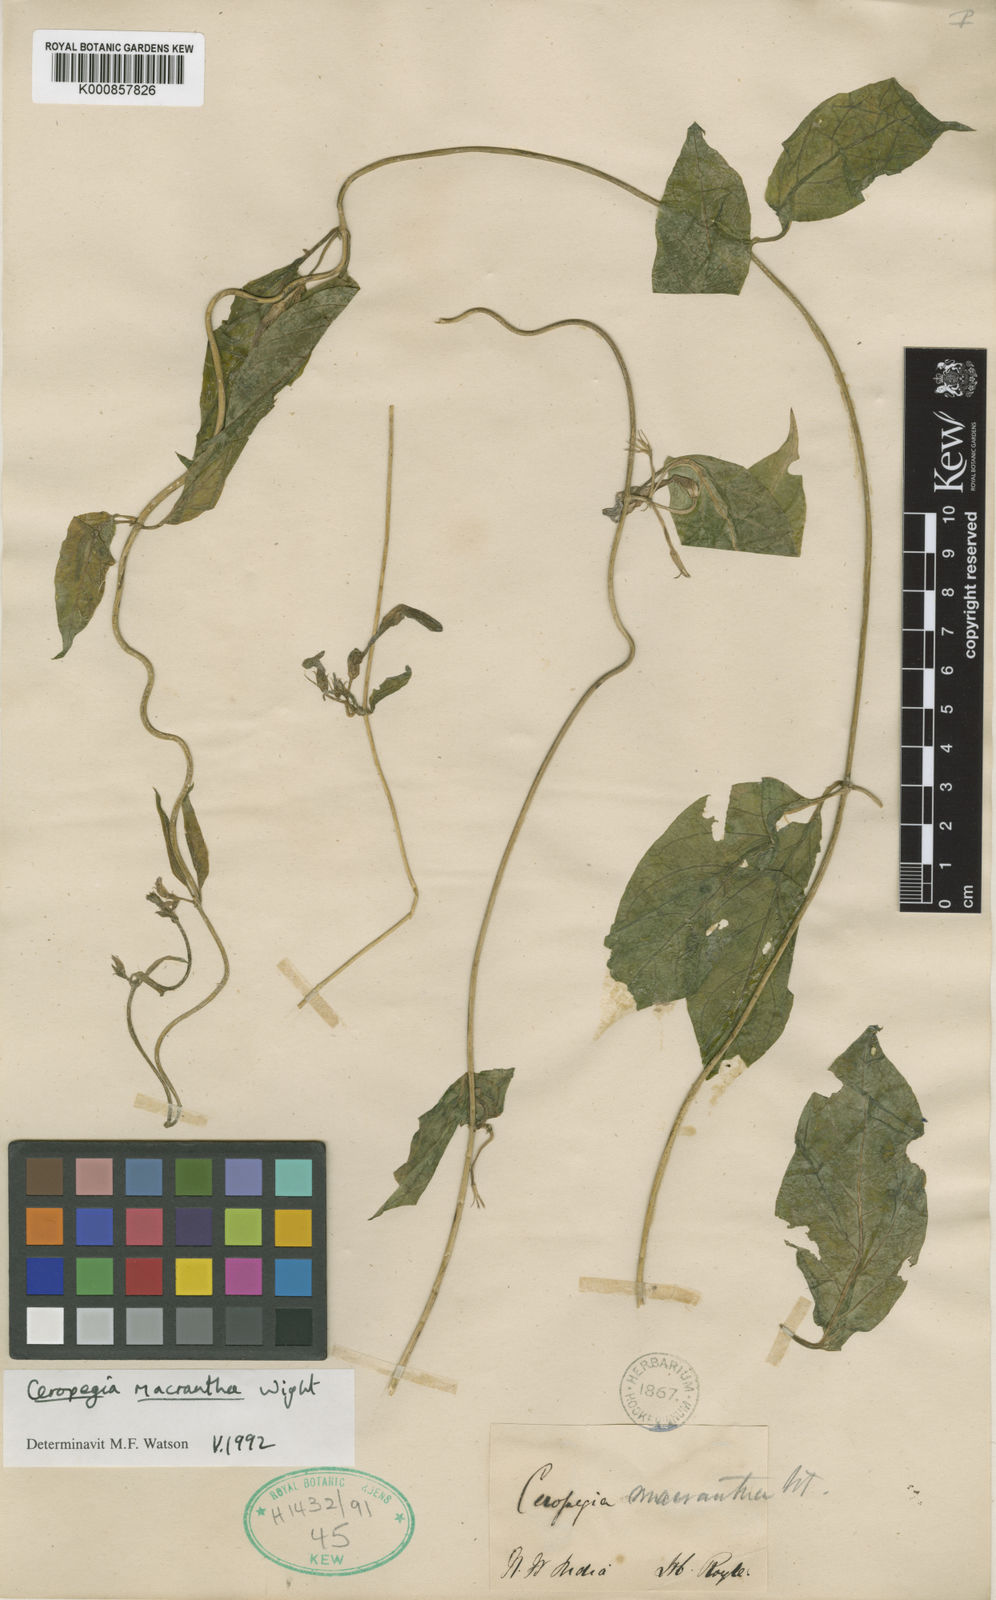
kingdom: Plantae
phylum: Tracheophyta
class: Magnoliopsida
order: Gentianales
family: Apocynaceae
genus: Ceropegia
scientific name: Ceropegia macrantha
